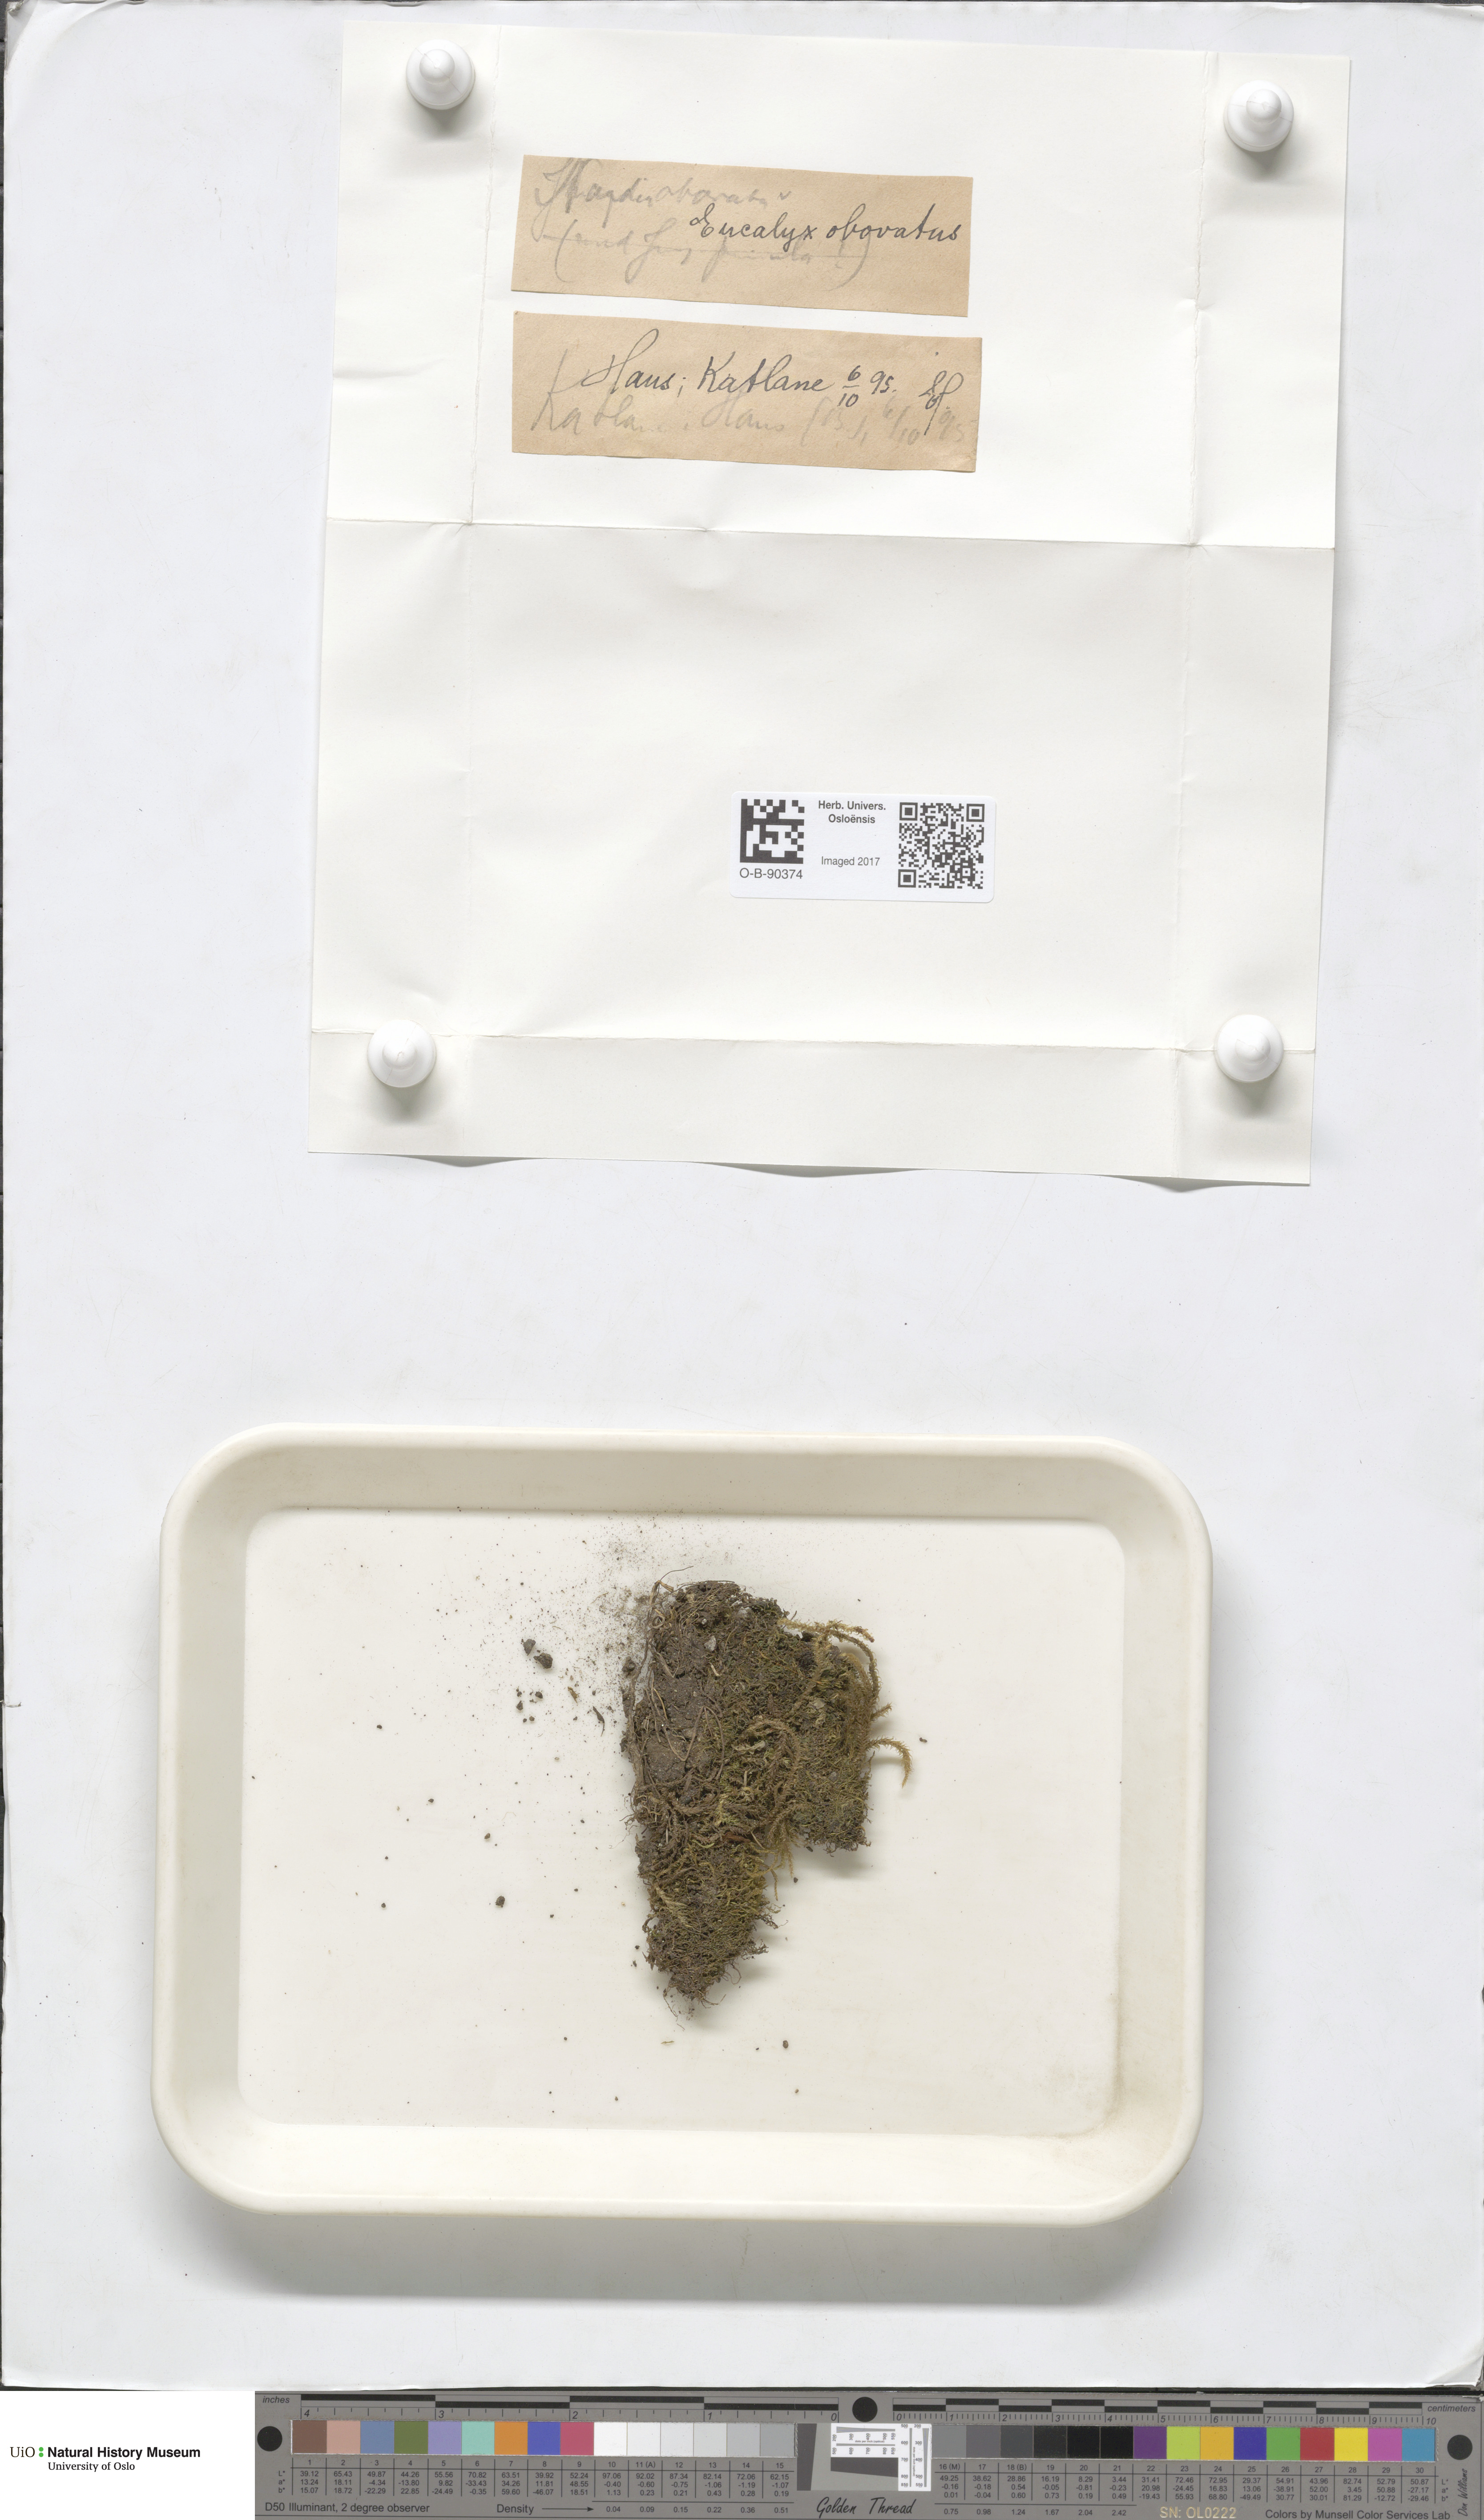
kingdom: Plantae
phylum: Marchantiophyta
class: Jungermanniopsida
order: Jungermanniales
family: Solenostomataceae
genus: Solenostoma
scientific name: Solenostoma obovatum
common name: Egg flapwort
